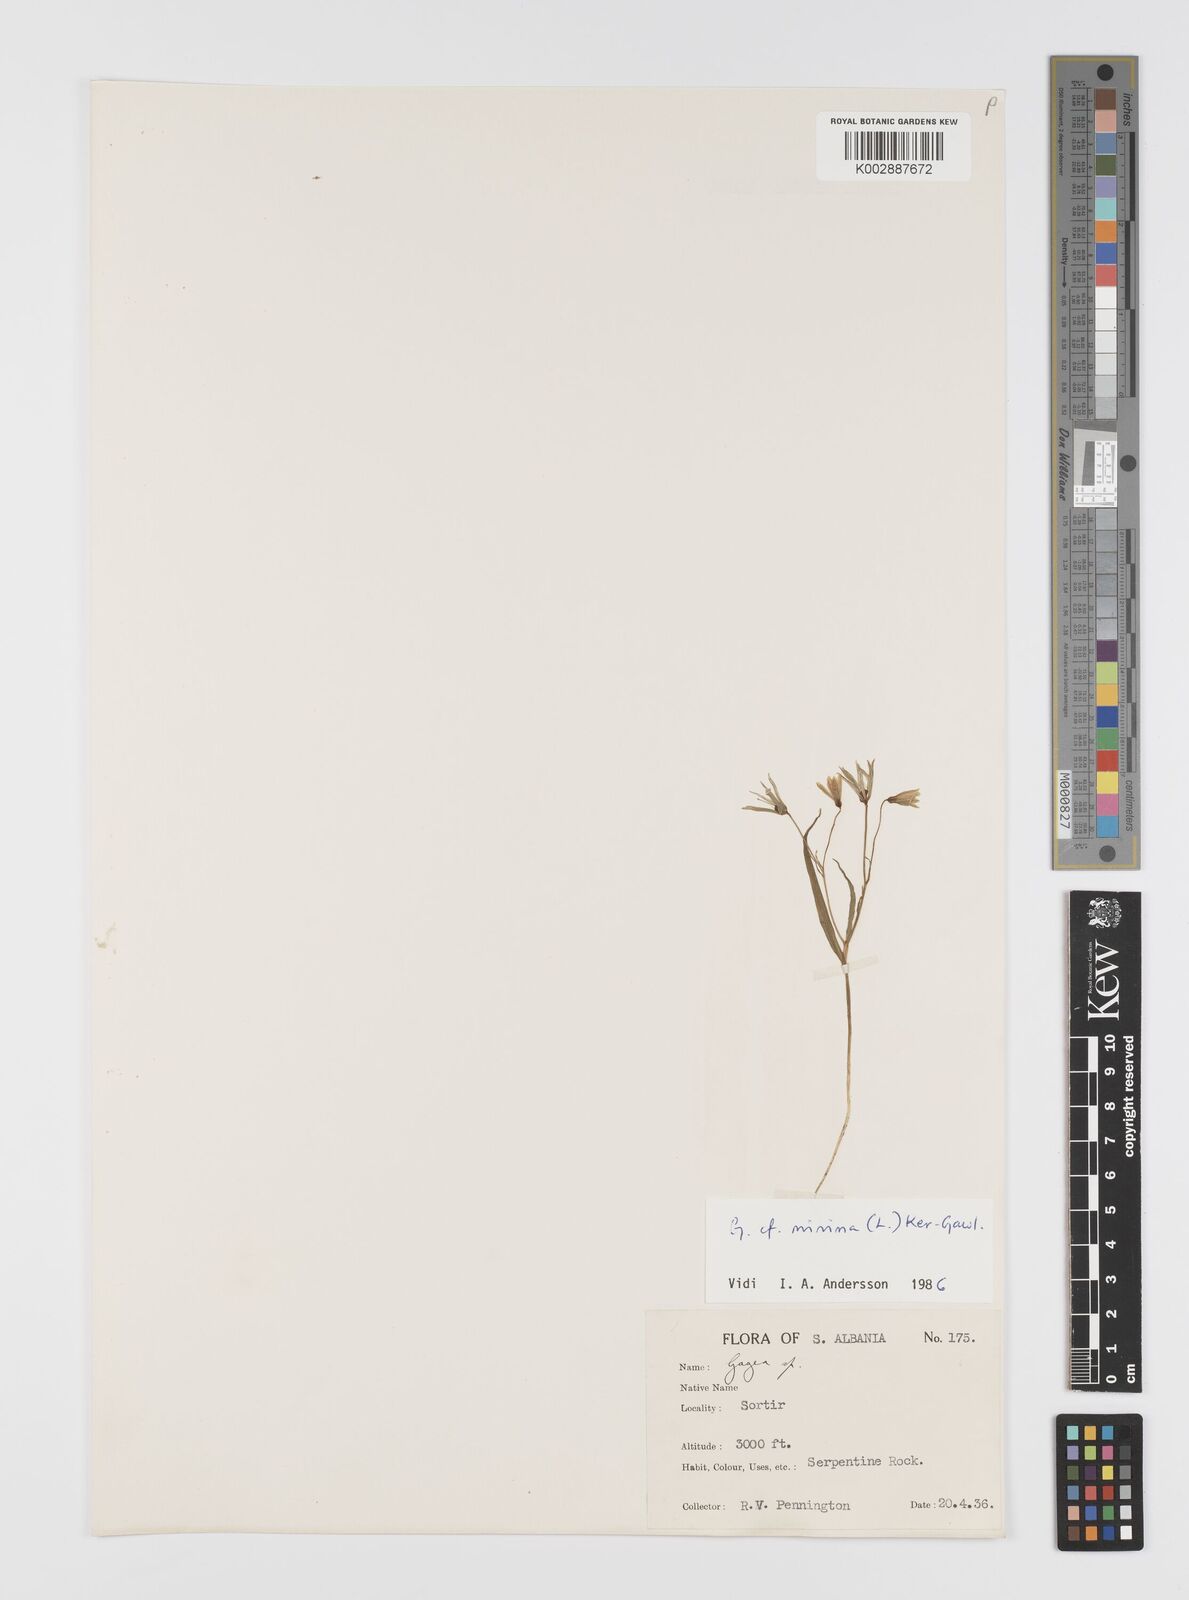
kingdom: Plantae
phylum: Tracheophyta
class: Liliopsida
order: Liliales
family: Liliaceae
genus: Gagea
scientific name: Gagea
